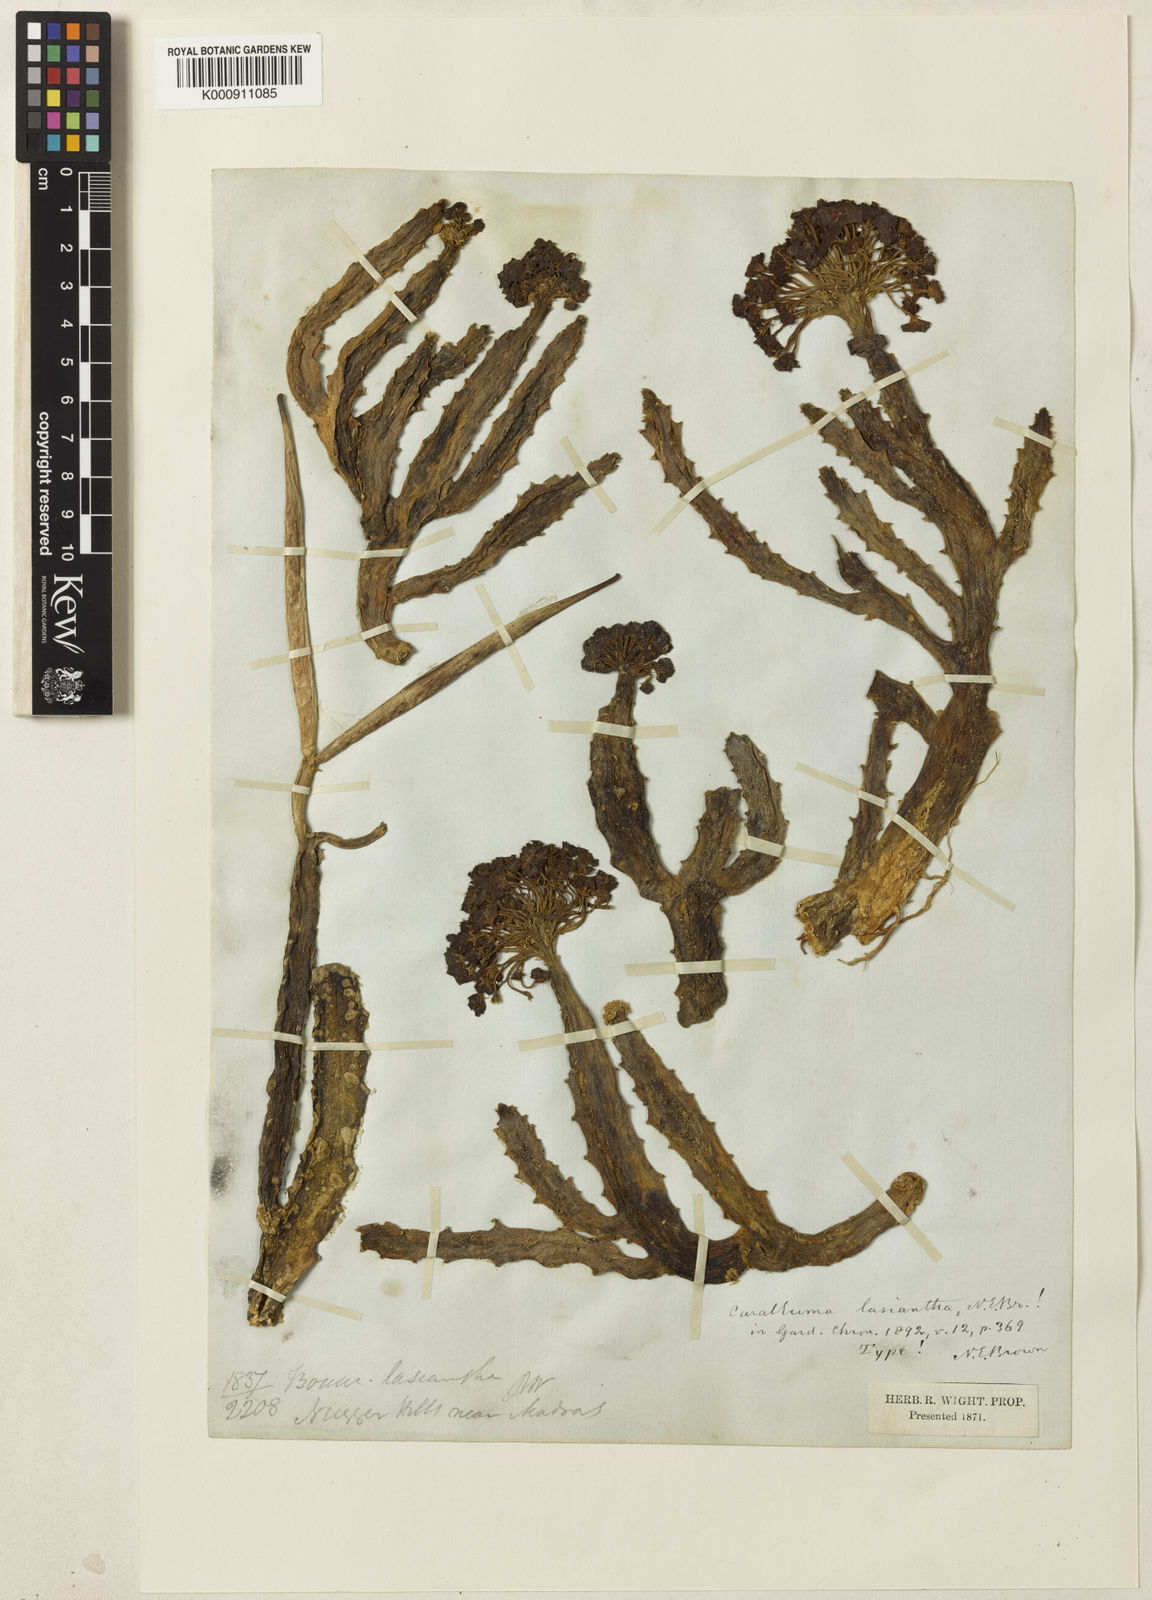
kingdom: Plantae
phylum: Tracheophyta
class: Magnoliopsida
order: Gentianales
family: Apocynaceae
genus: Ceropegia
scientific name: Ceropegia umbellata
